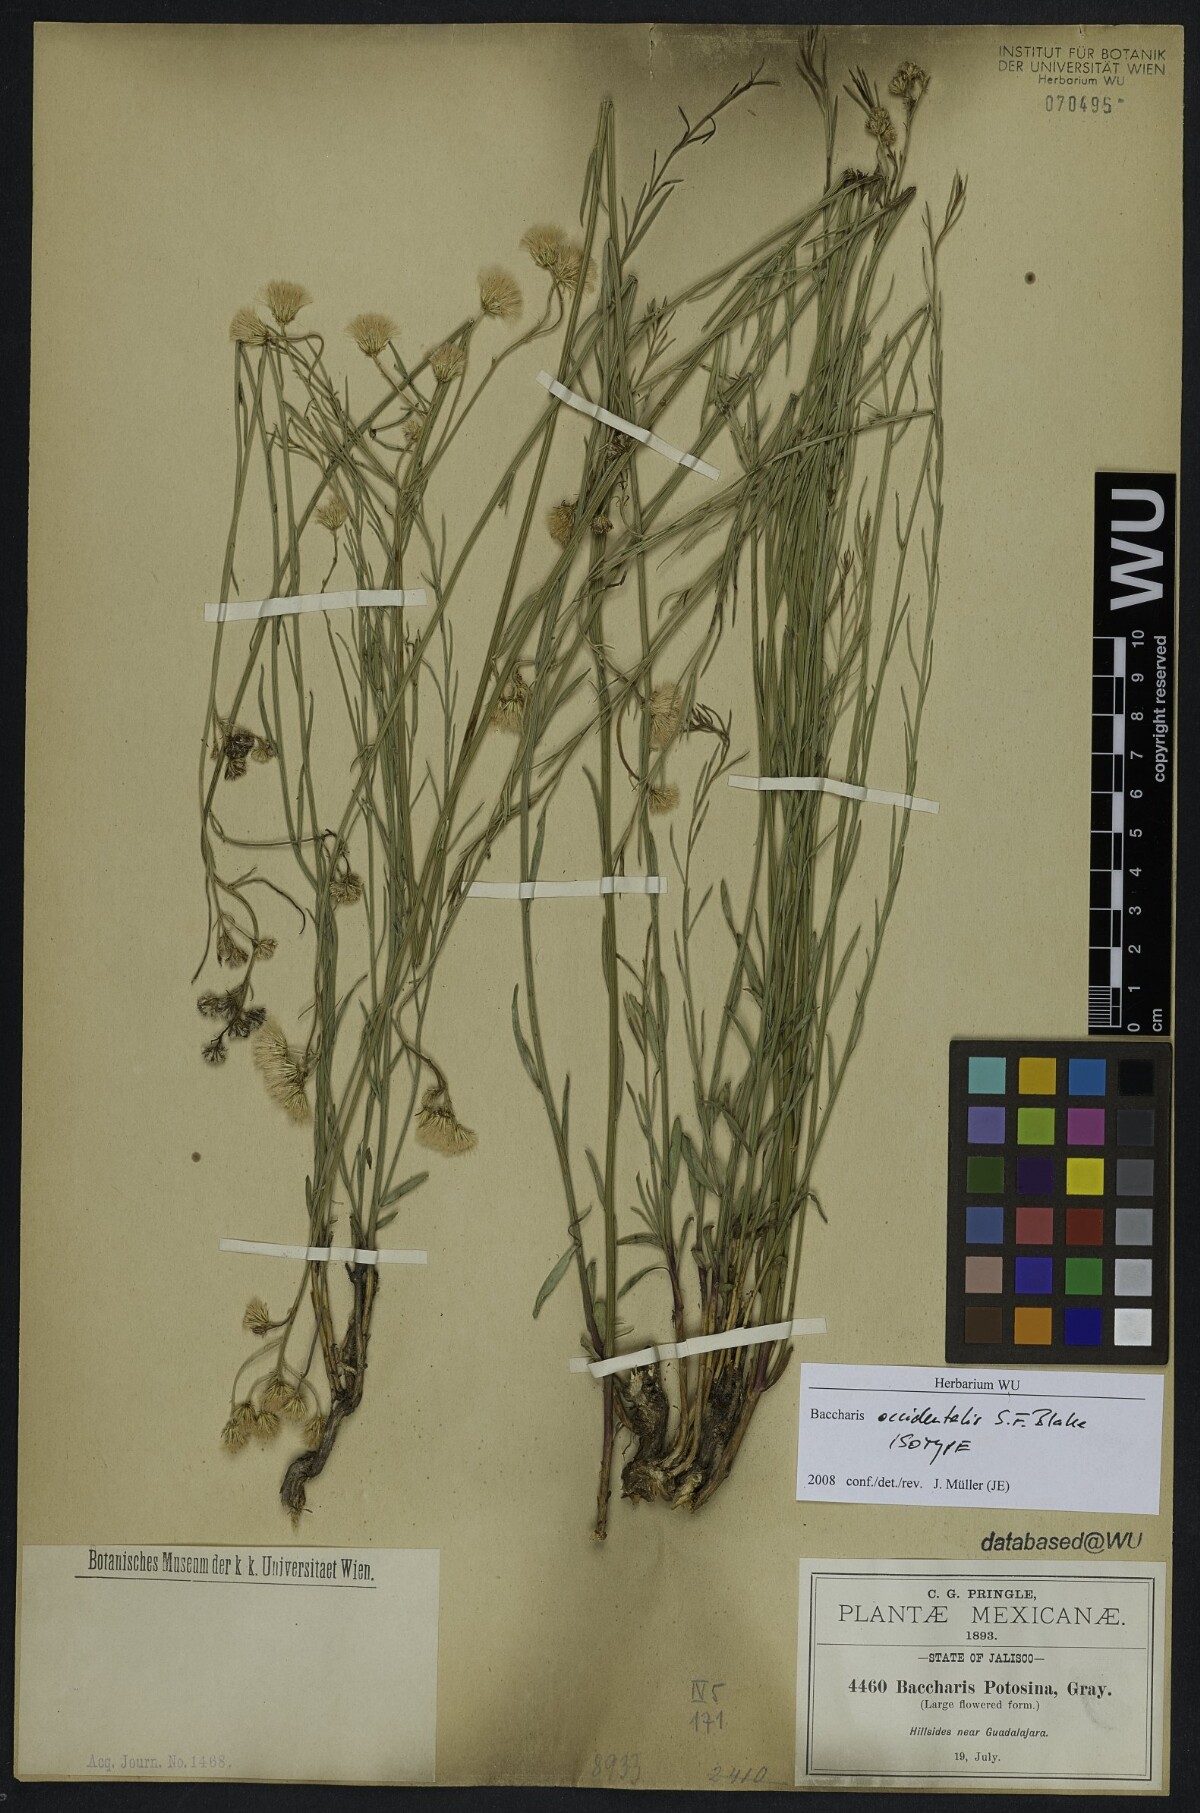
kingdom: Plantae
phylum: Tracheophyta
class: Magnoliopsida
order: Asterales
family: Asteraceae
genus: Baccharis
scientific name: Baccharis occidentalis
